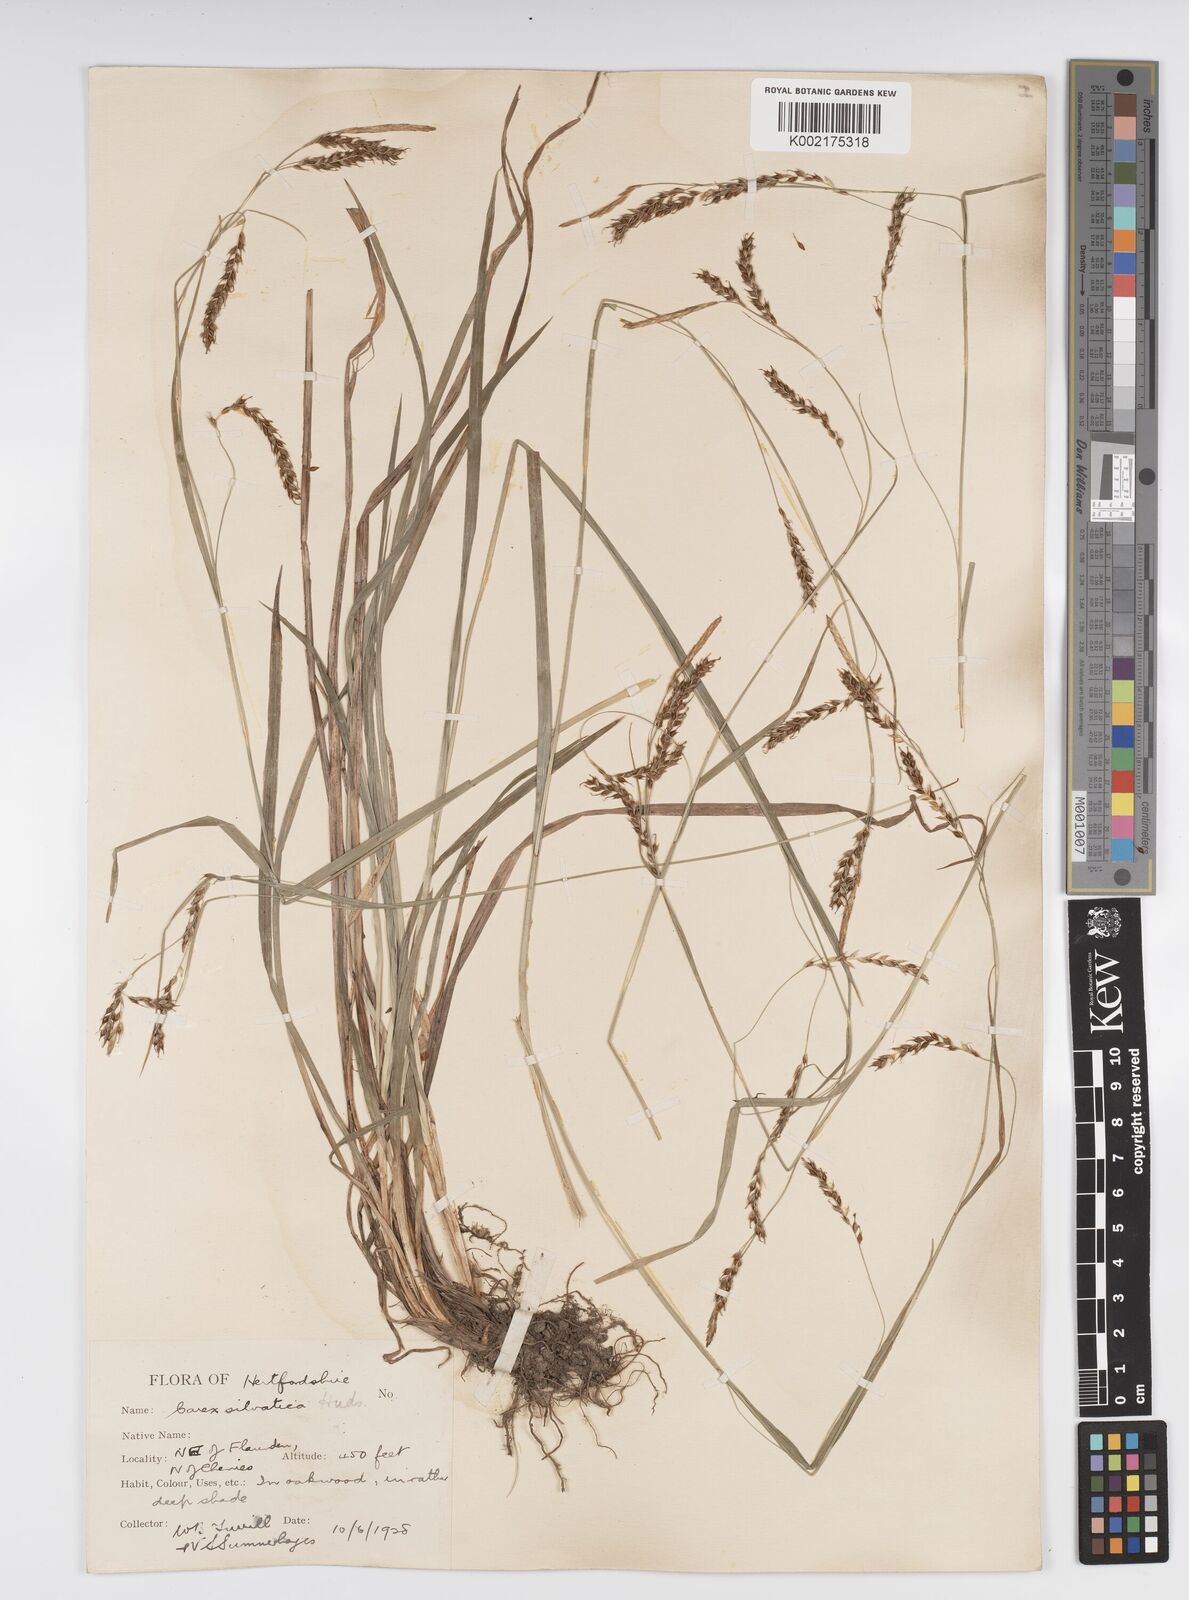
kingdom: Plantae
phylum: Tracheophyta
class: Liliopsida
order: Poales
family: Cyperaceae
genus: Carex
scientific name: Carex sylvatica
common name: Wood-sedge
